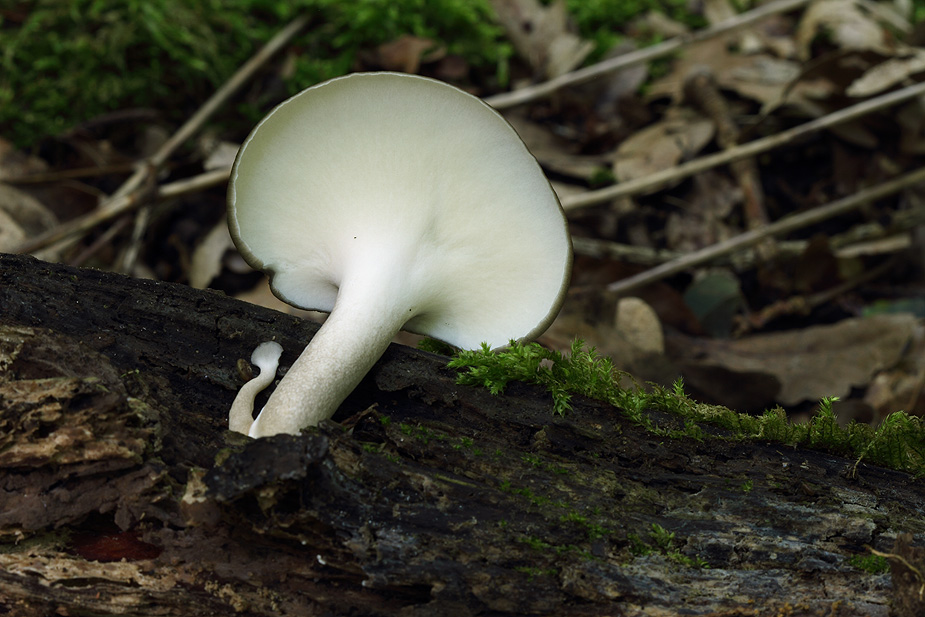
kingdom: Fungi
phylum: Basidiomycota
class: Agaricomycetes
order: Polyporales
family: Polyporaceae
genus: Cerioporus
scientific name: Cerioporus varius
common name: foranderlig stilkporesvamp
